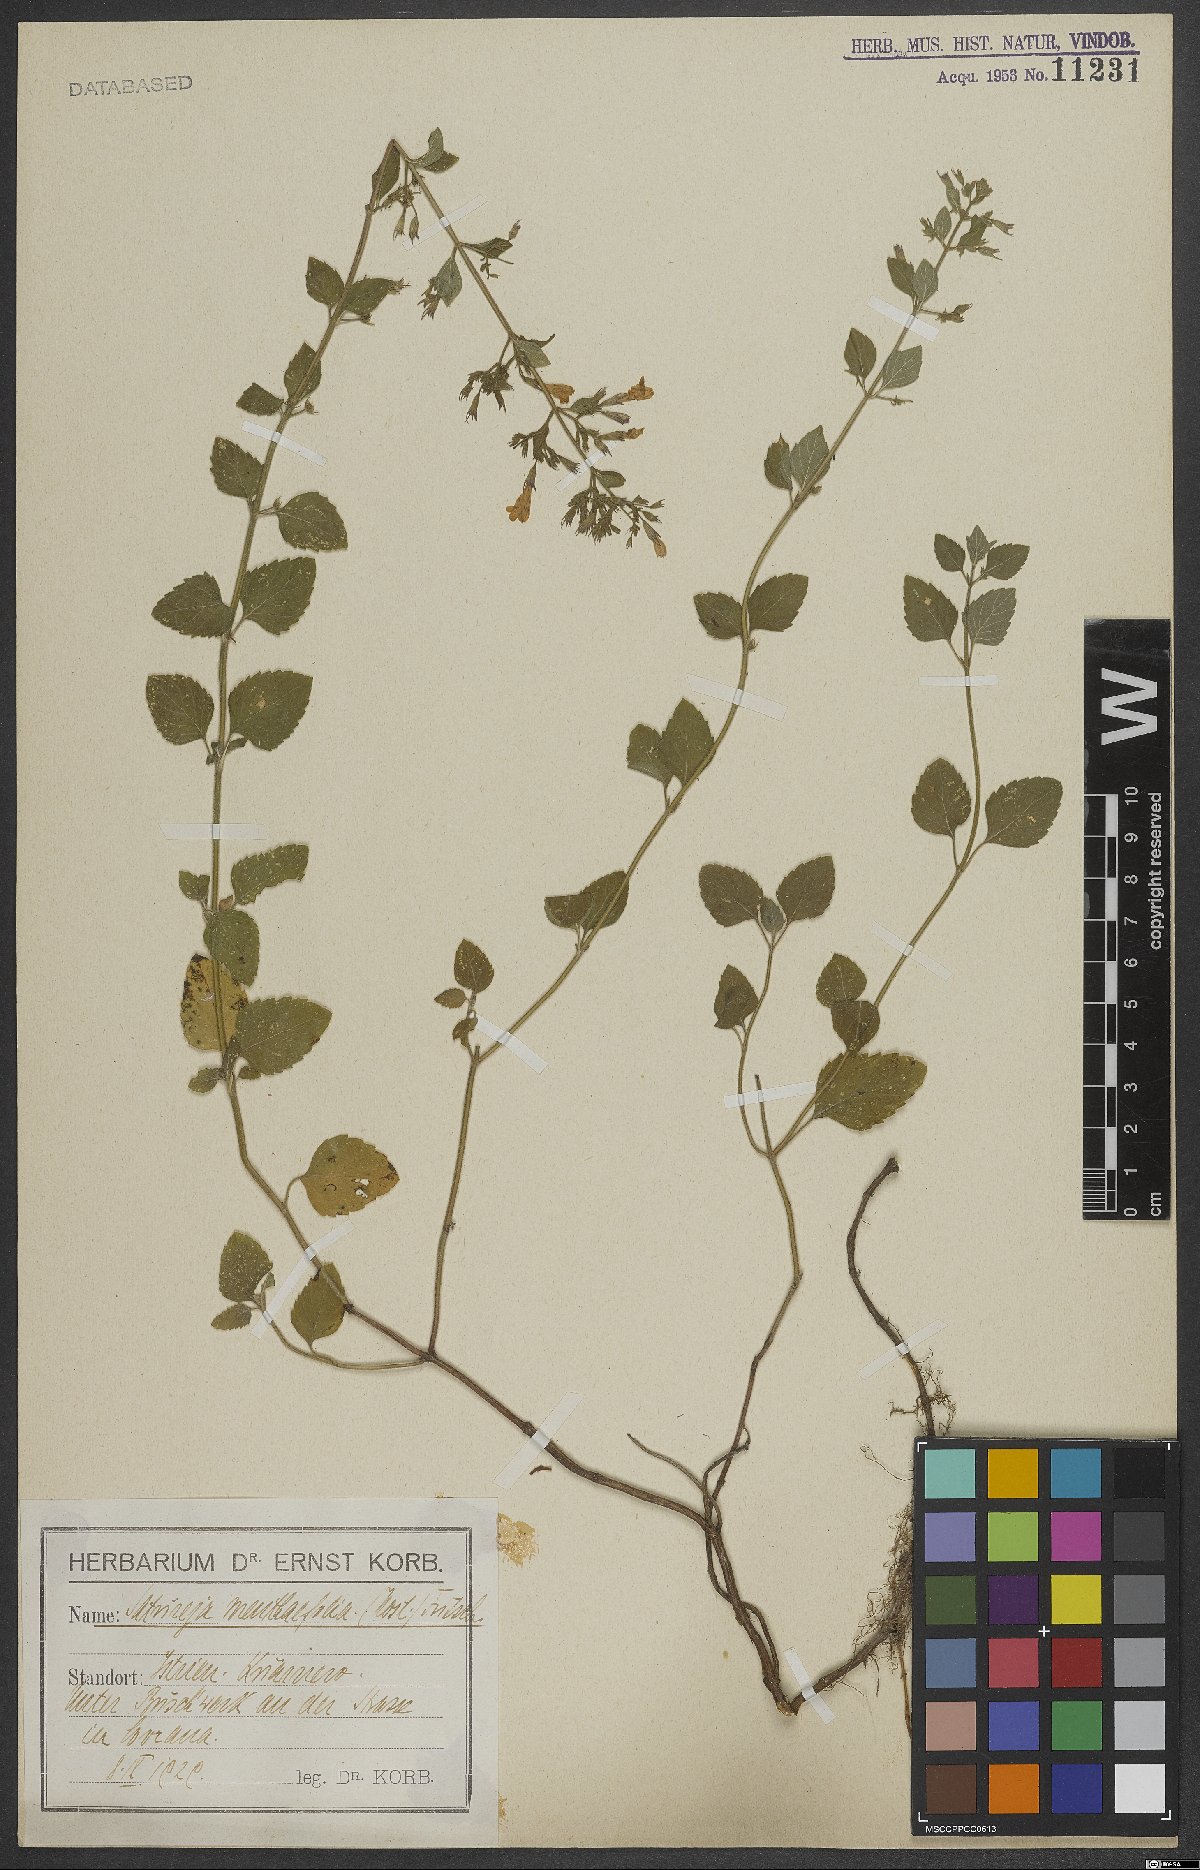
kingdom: Plantae
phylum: Tracheophyta
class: Magnoliopsida
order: Lamiales
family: Lamiaceae
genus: Clinopodium
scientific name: Clinopodium menthifolium
